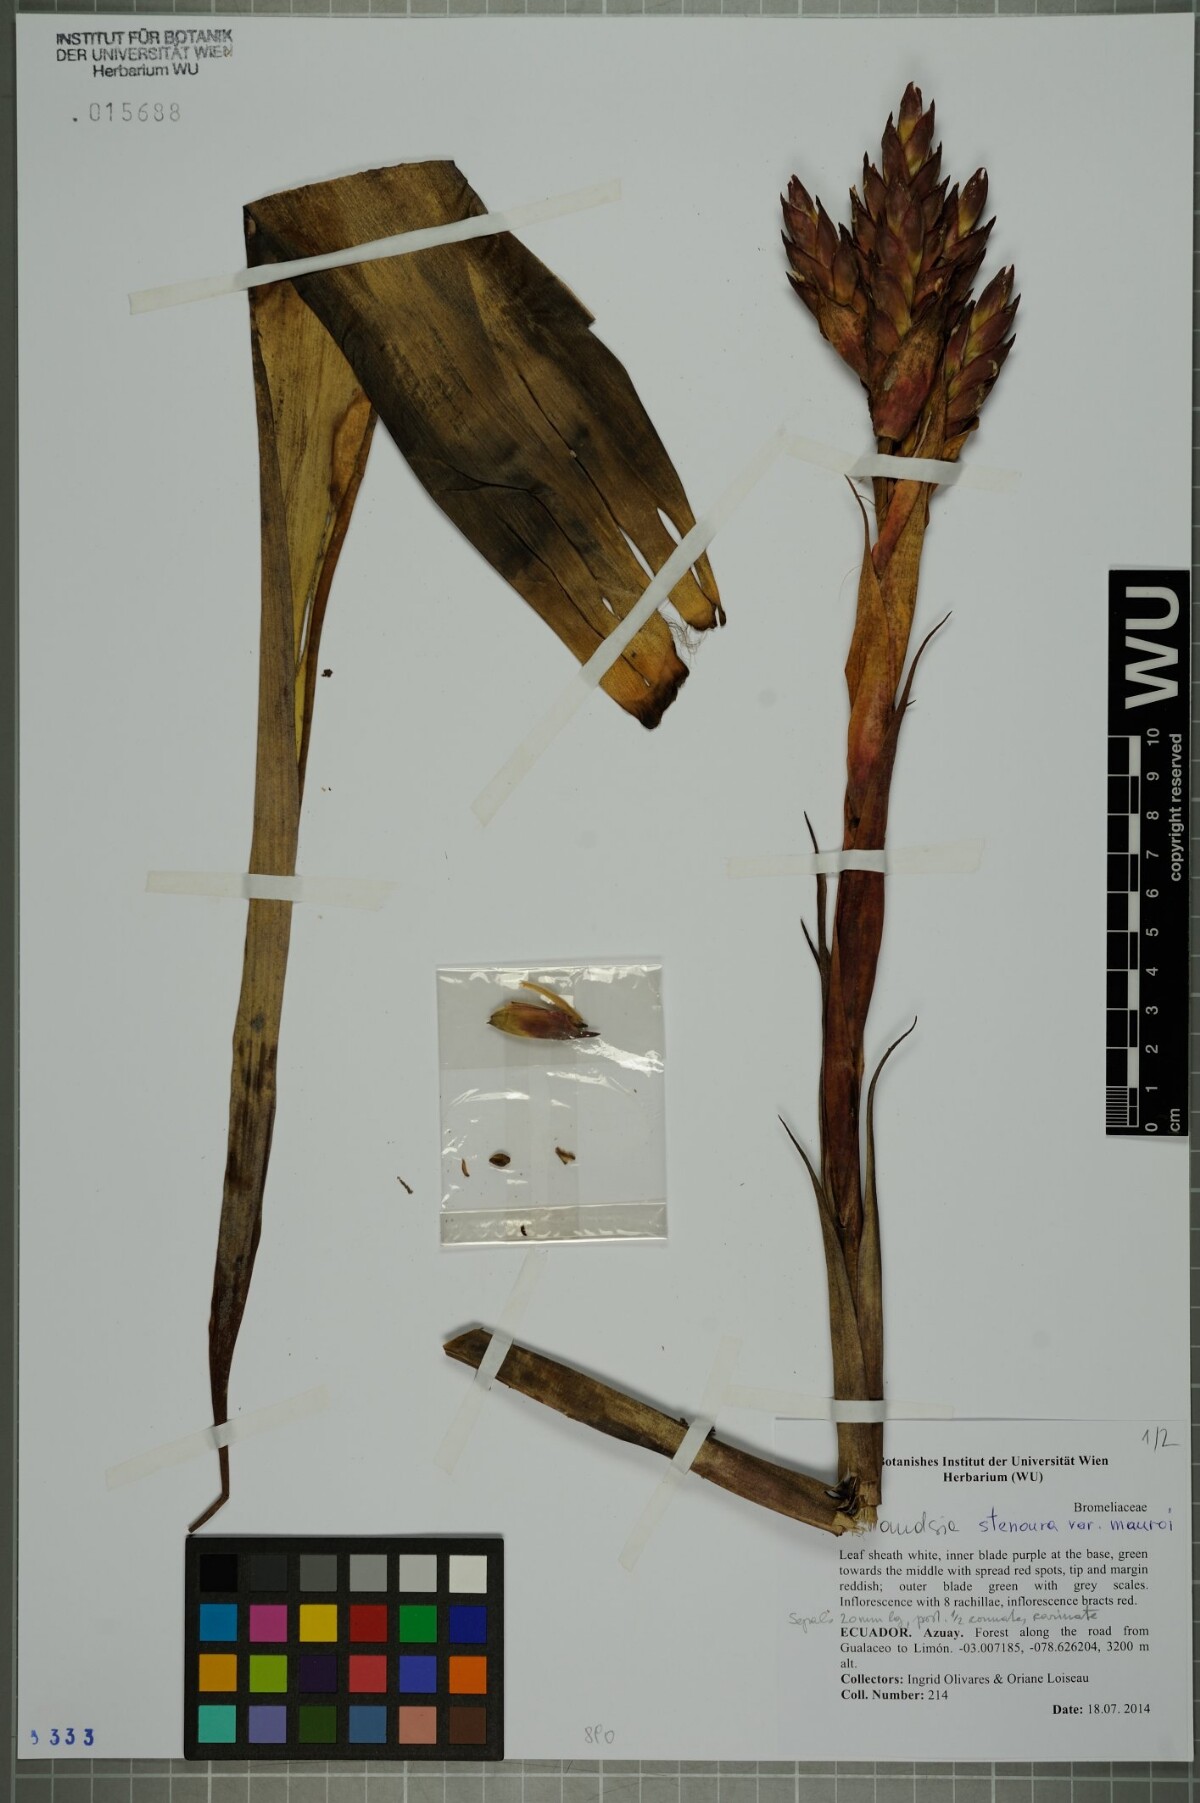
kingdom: Plantae
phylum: Tracheophyta
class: Liliopsida
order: Poales
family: Bromeliaceae
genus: Tillandsia
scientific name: Tillandsia stenoura
